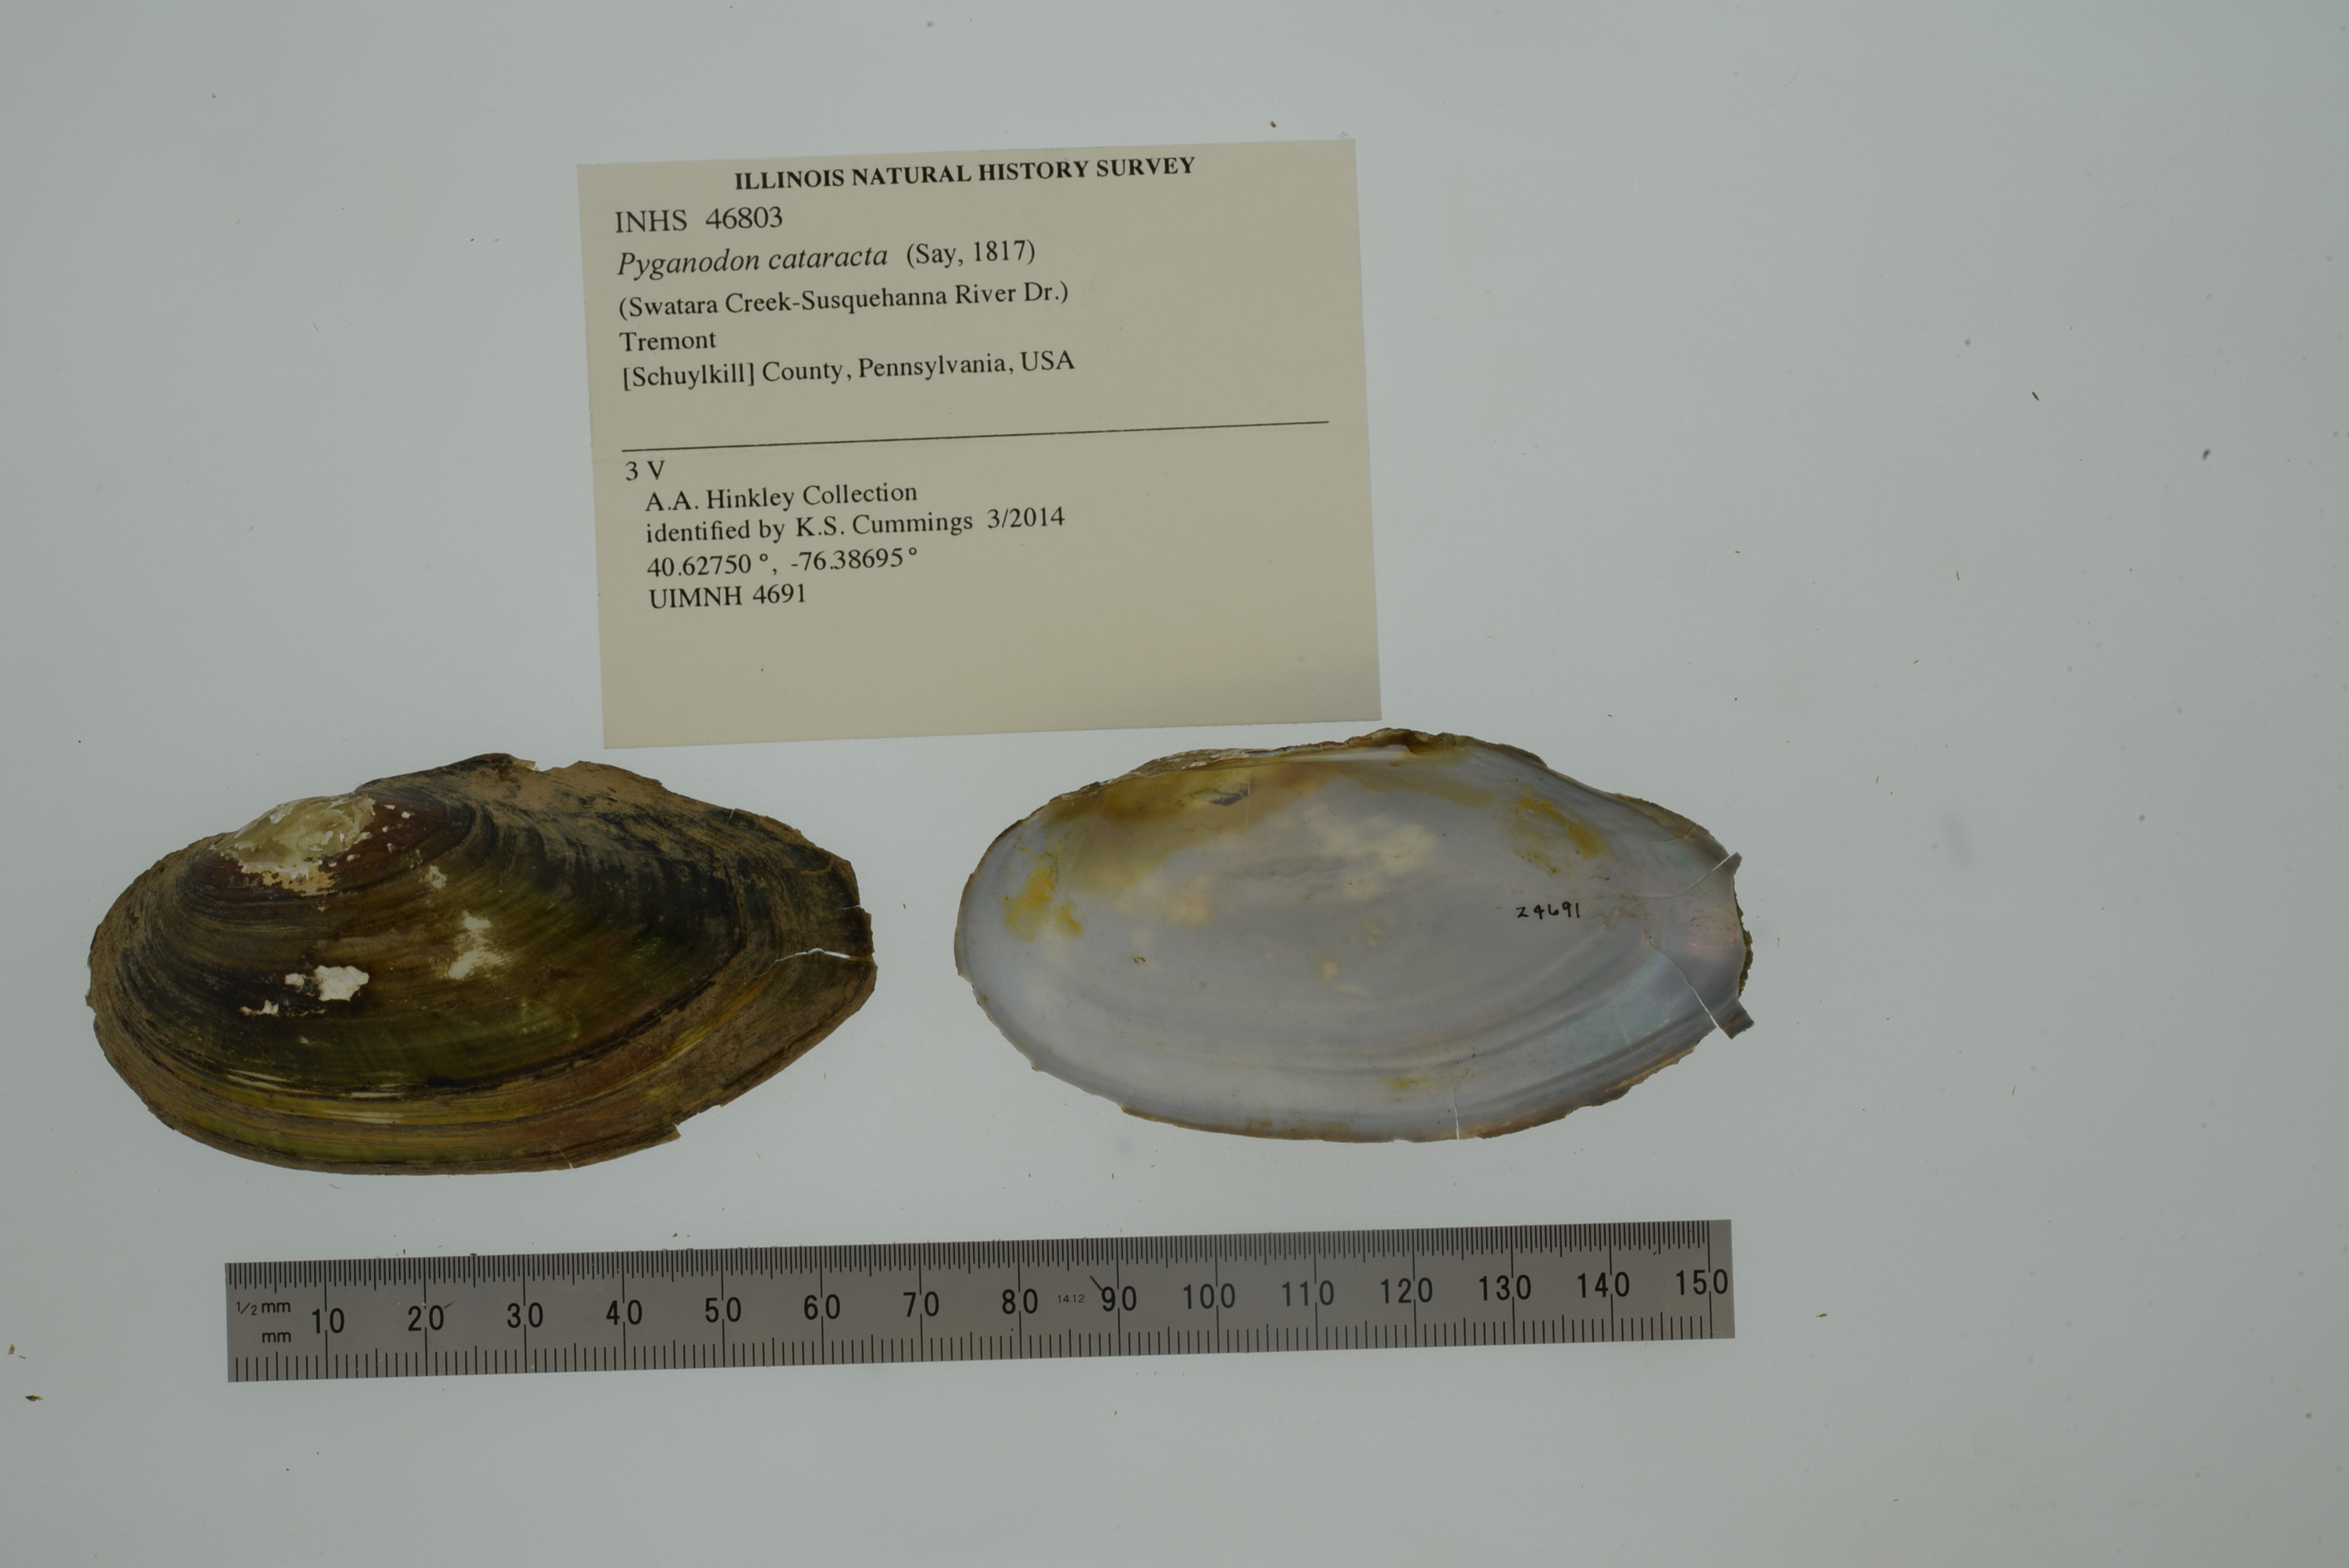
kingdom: Animalia
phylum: Mollusca
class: Bivalvia
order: Unionida
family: Unionidae
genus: Pyganodon
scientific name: Pyganodon cataracta
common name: Eastern floater
